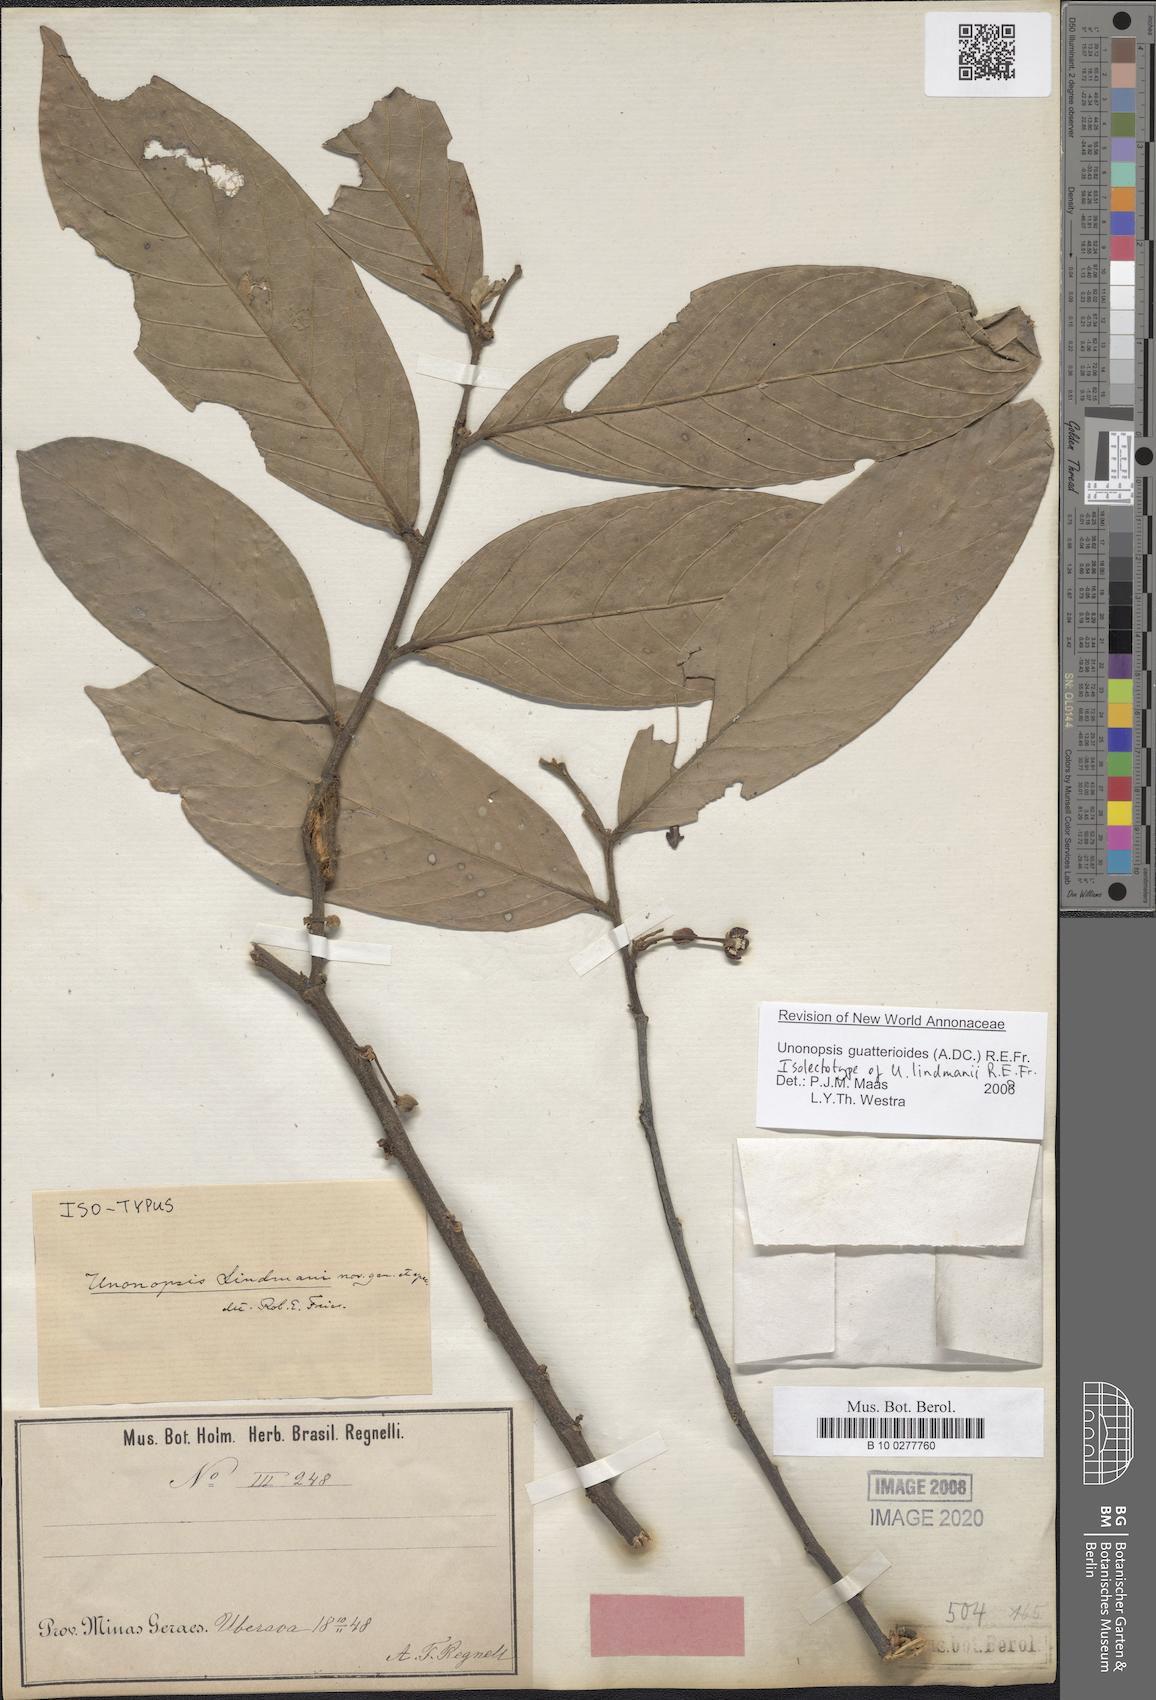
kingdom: Plantae
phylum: Tracheophyta
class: Magnoliopsida
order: Magnoliales
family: Annonaceae
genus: Unonopsis
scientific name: Unonopsis guatterioides
